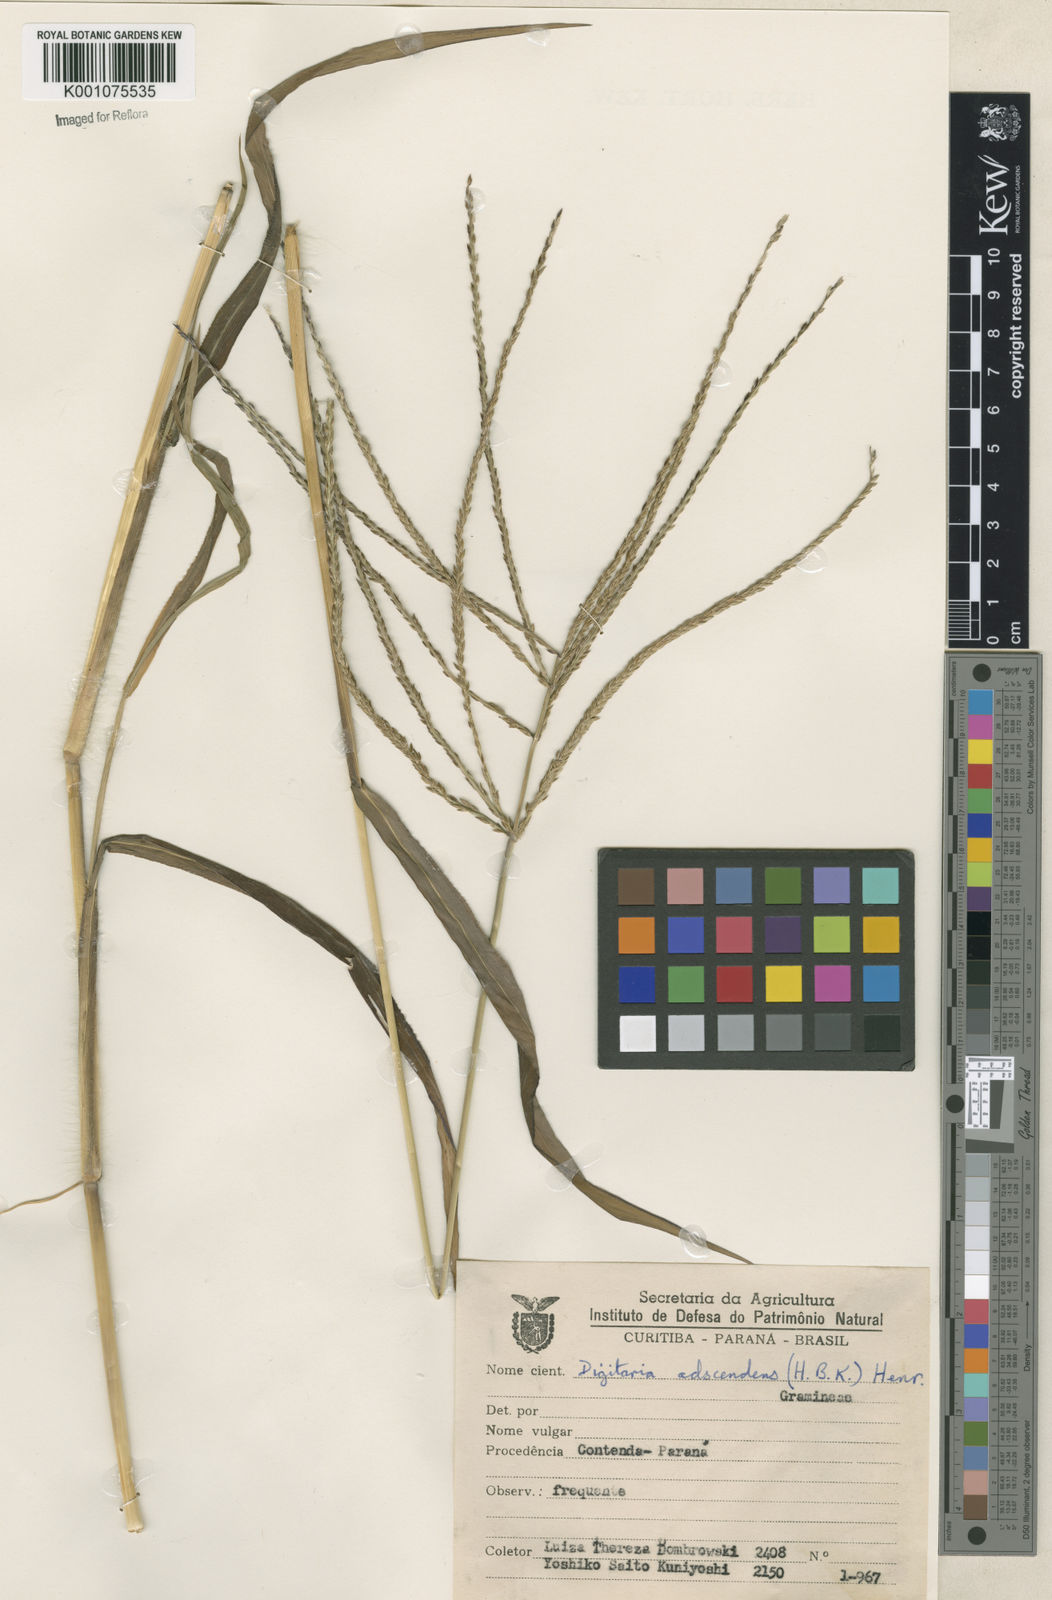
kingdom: Plantae
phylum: Tracheophyta
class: Liliopsida
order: Poales
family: Poaceae
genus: Digitaria
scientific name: Digitaria ciliaris
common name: Tropical finger-grass
